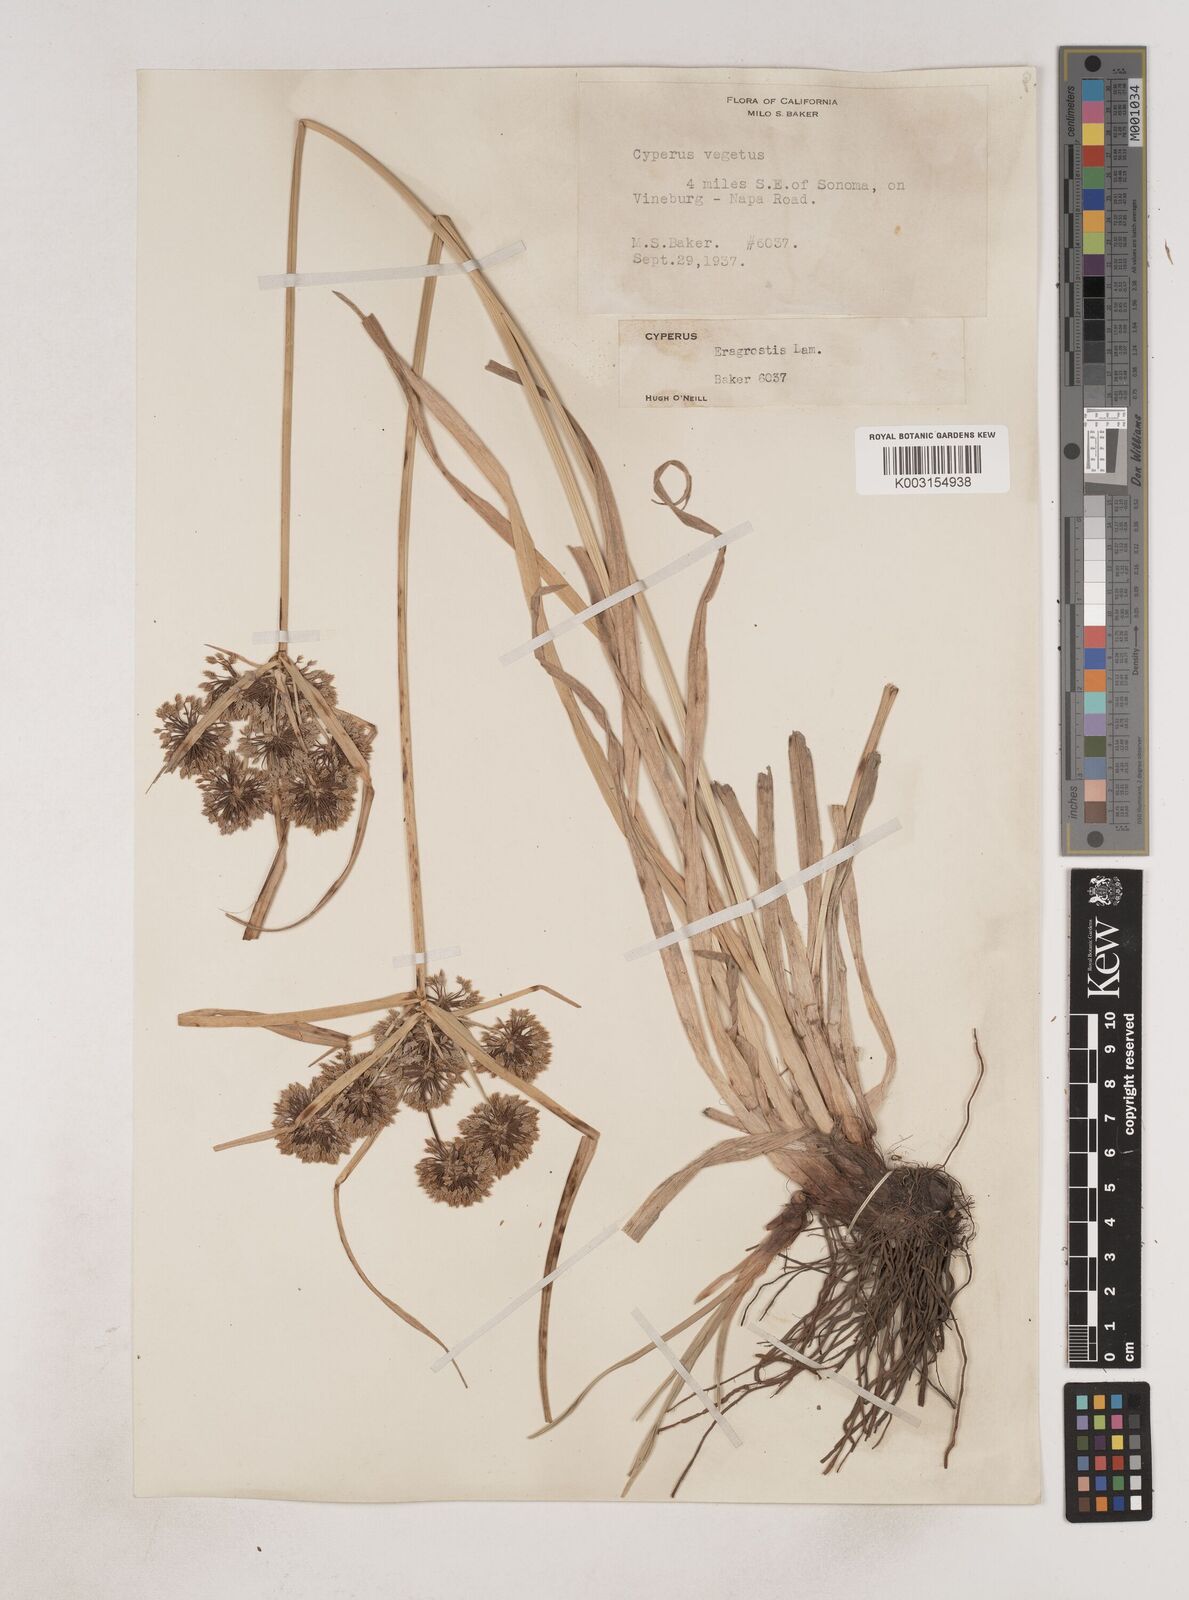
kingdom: Plantae
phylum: Tracheophyta
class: Liliopsida
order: Poales
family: Cyperaceae
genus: Cyperus
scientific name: Cyperus eragrostis
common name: Tall flatsedge
